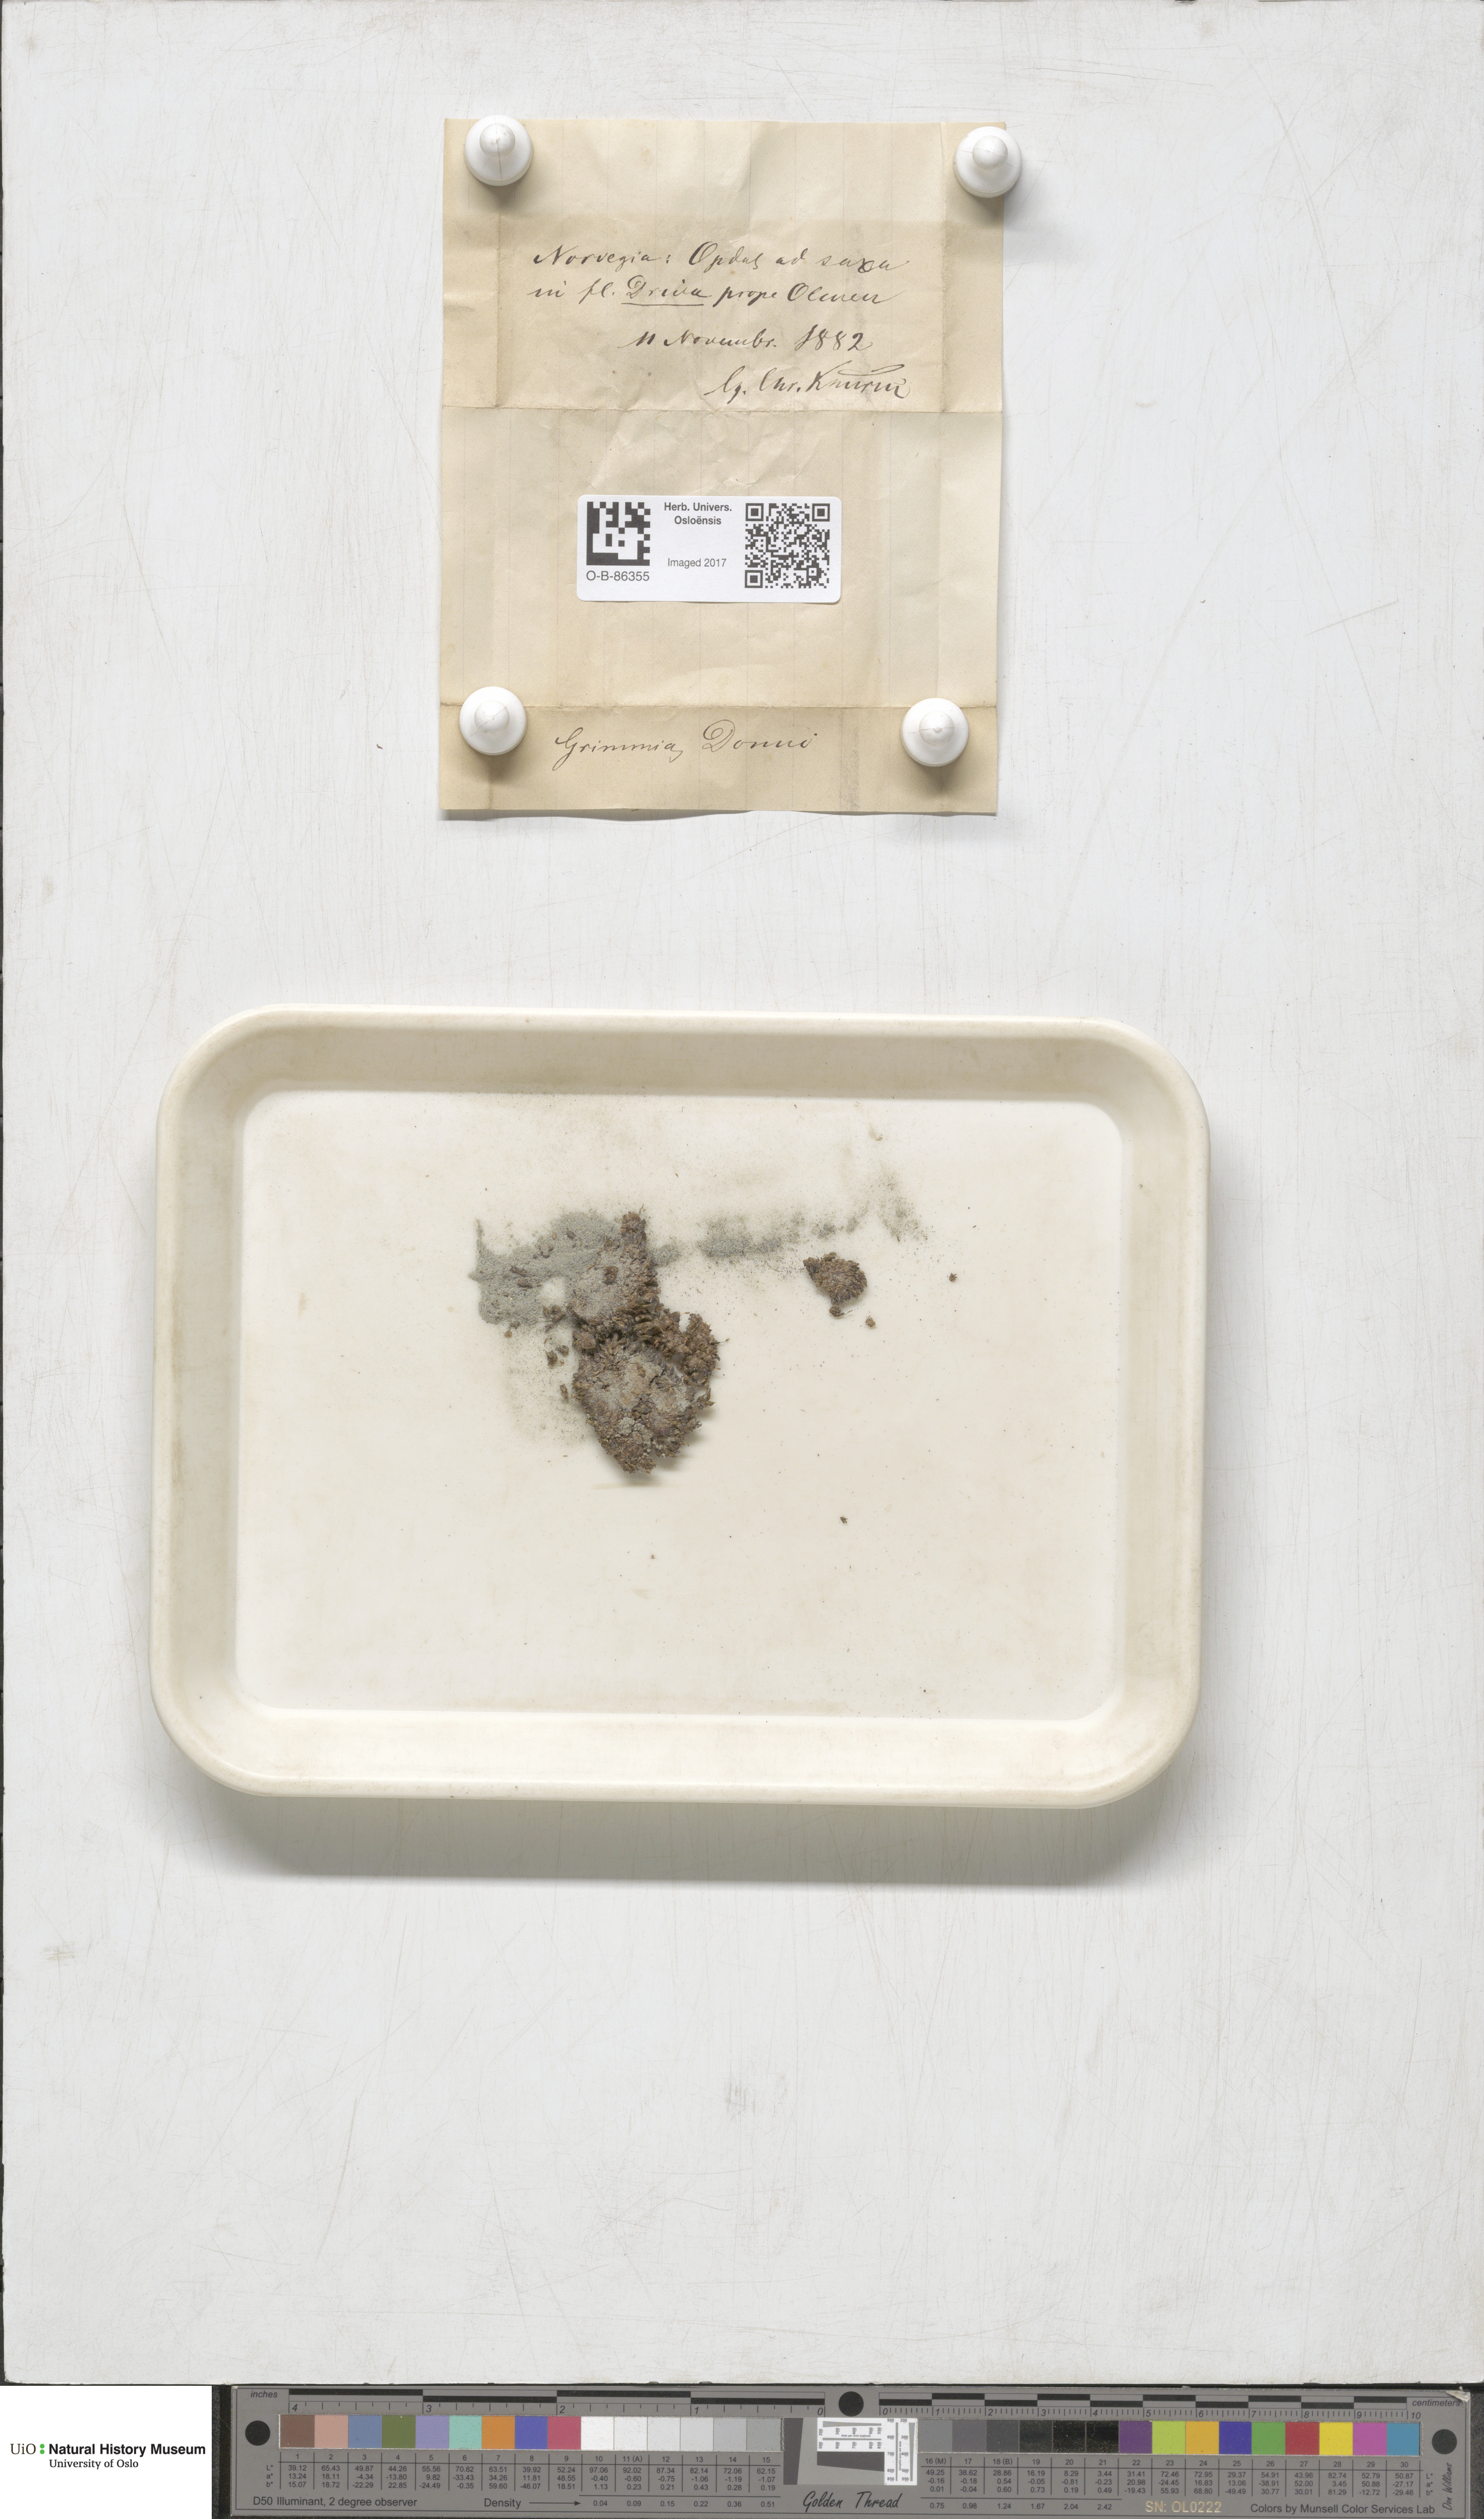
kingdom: Plantae
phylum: Bryophyta
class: Bryopsida
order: Grimmiales
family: Grimmiaceae
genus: Grimmia
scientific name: Grimmia donniana
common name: Donn's grimmia
